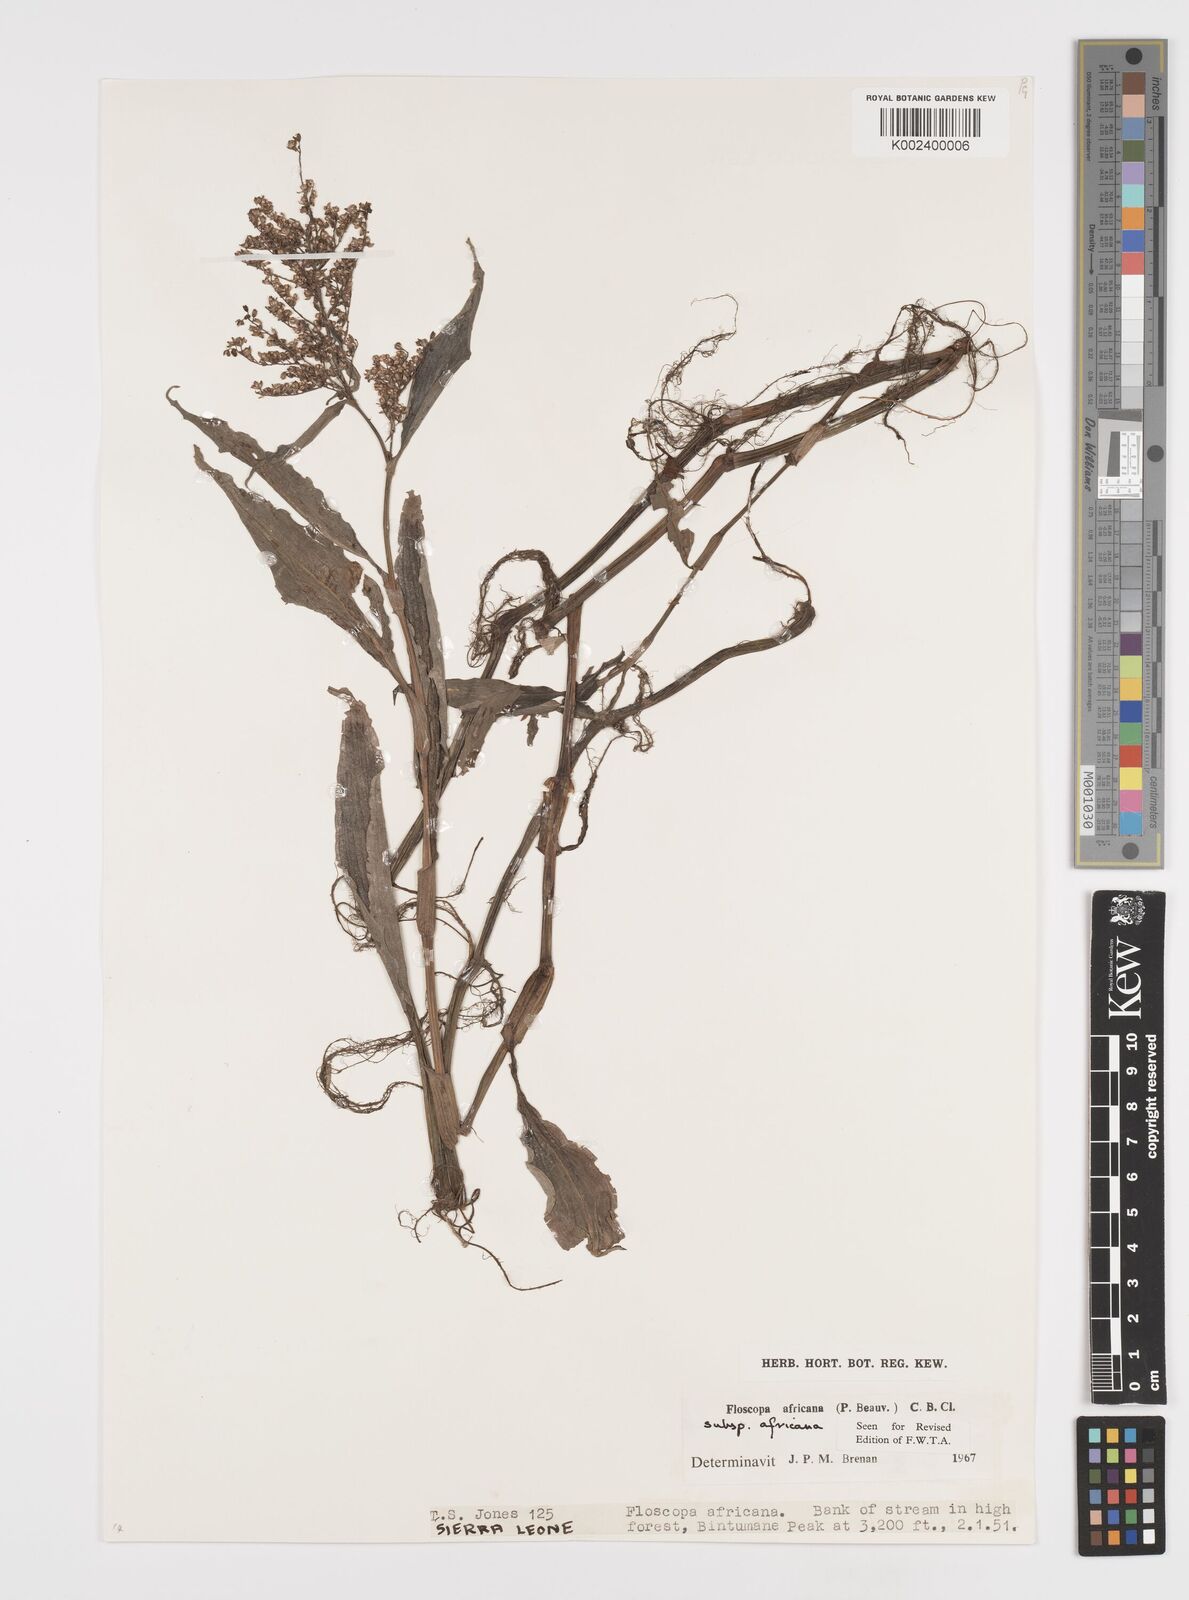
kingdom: Plantae
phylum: Tracheophyta
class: Liliopsida
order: Commelinales
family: Commelinaceae
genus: Floscopa
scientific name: Floscopa africana
